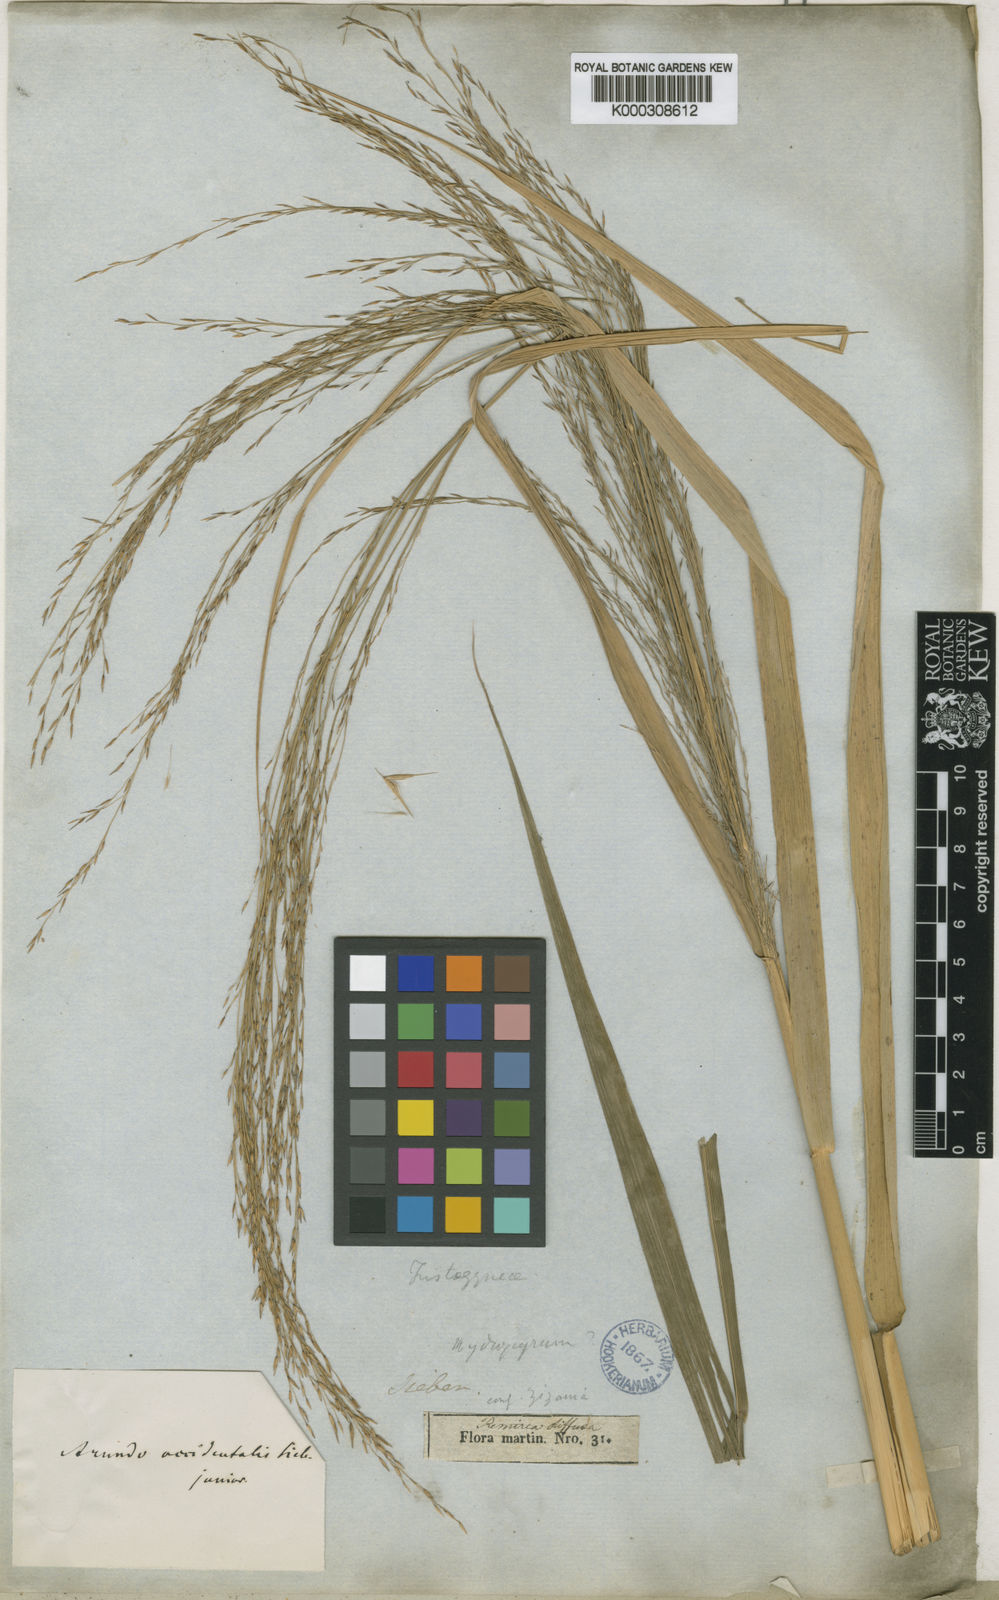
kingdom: Plantae
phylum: Tracheophyta
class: Liliopsida
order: Poales
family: Poaceae
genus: Phragmites
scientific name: Phragmites australis
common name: Common reed
